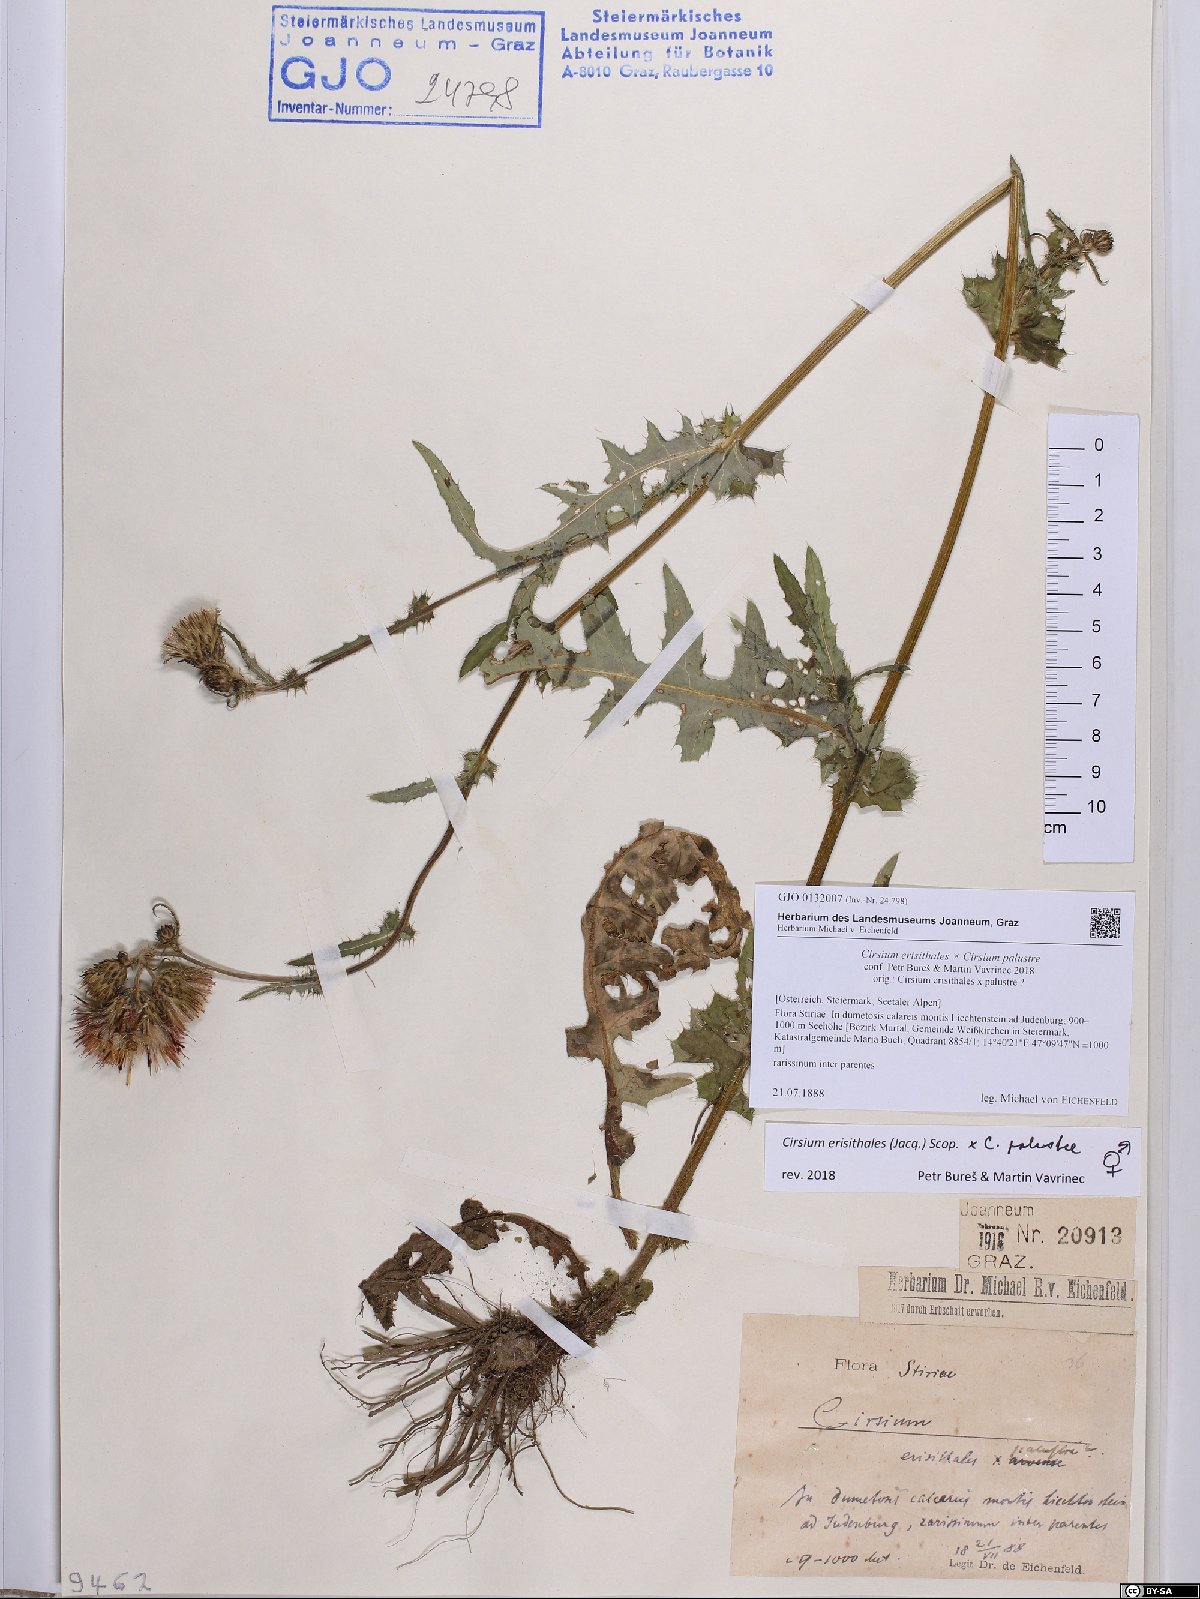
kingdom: Plantae
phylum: Tracheophyta
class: Magnoliopsida
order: Asterales
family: Asteraceae
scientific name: Asteraceae
